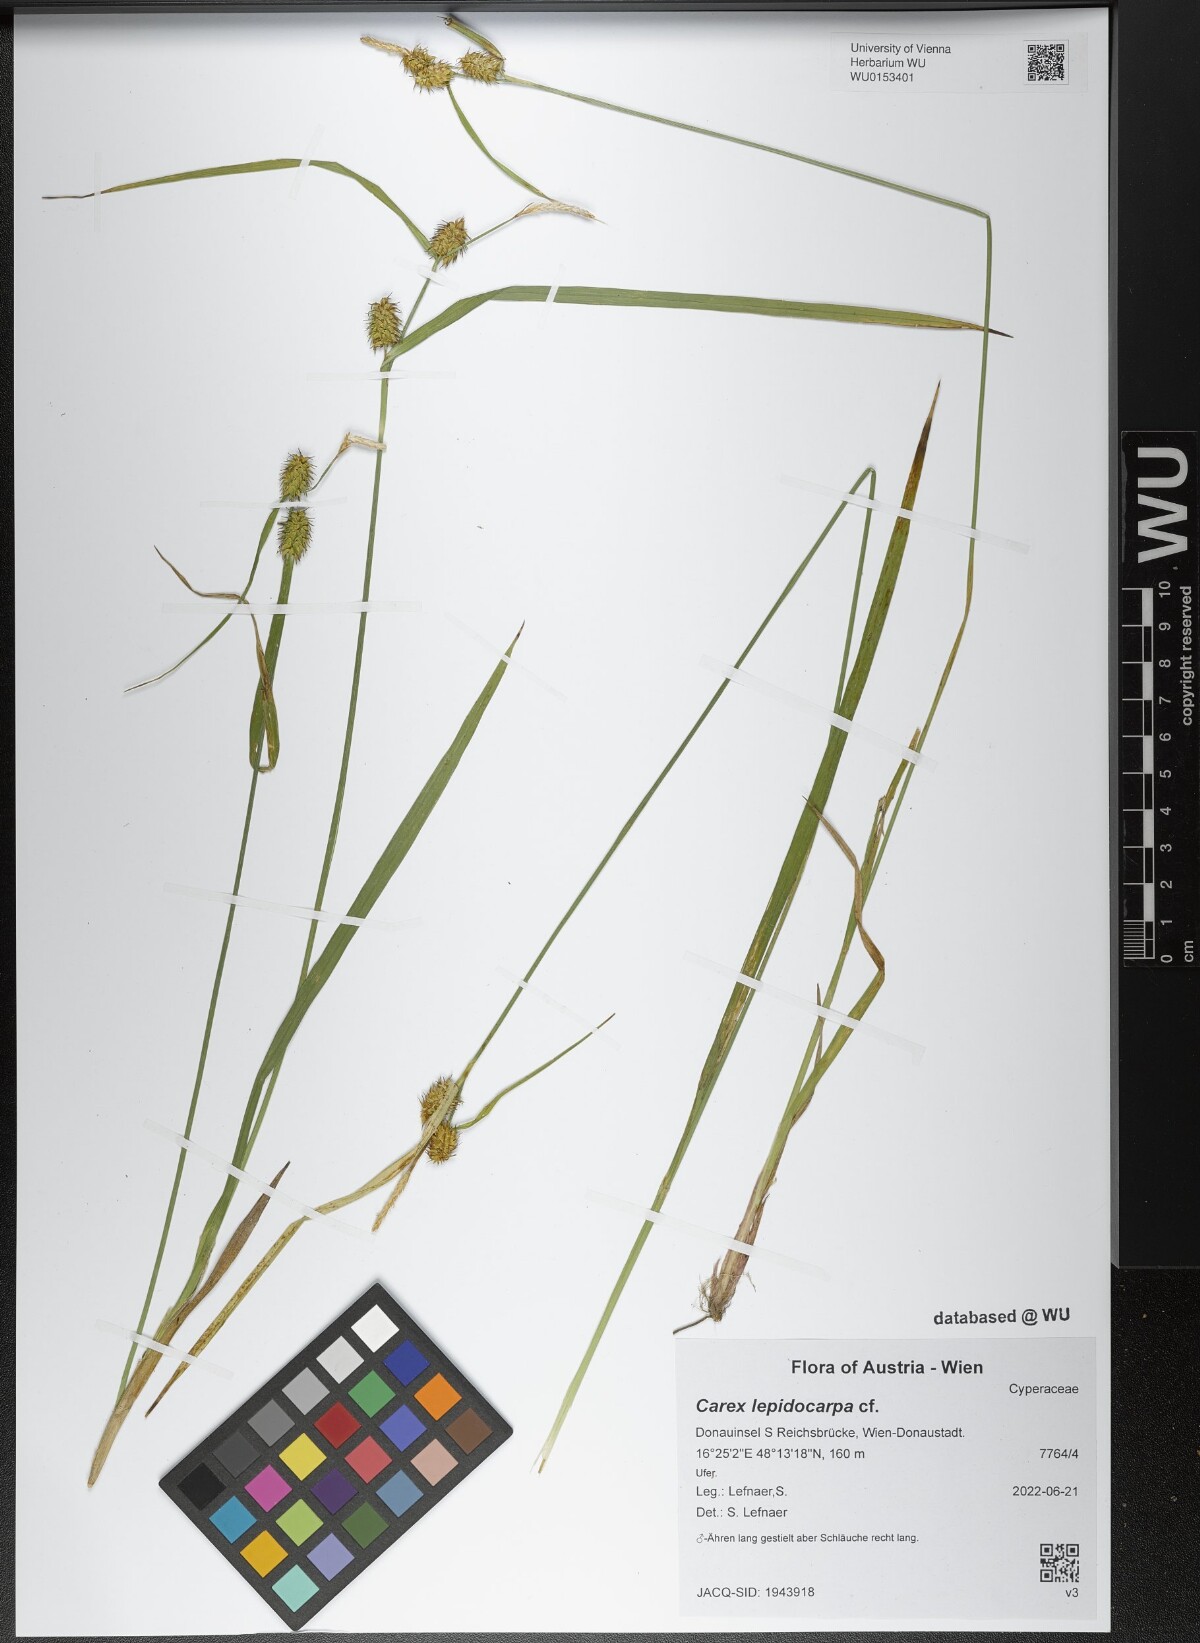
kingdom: Plantae
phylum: Tracheophyta
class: Liliopsida
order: Poales
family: Cyperaceae
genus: Carex
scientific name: Carex lepidocarpa
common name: Long-stalked yellow-sedge
